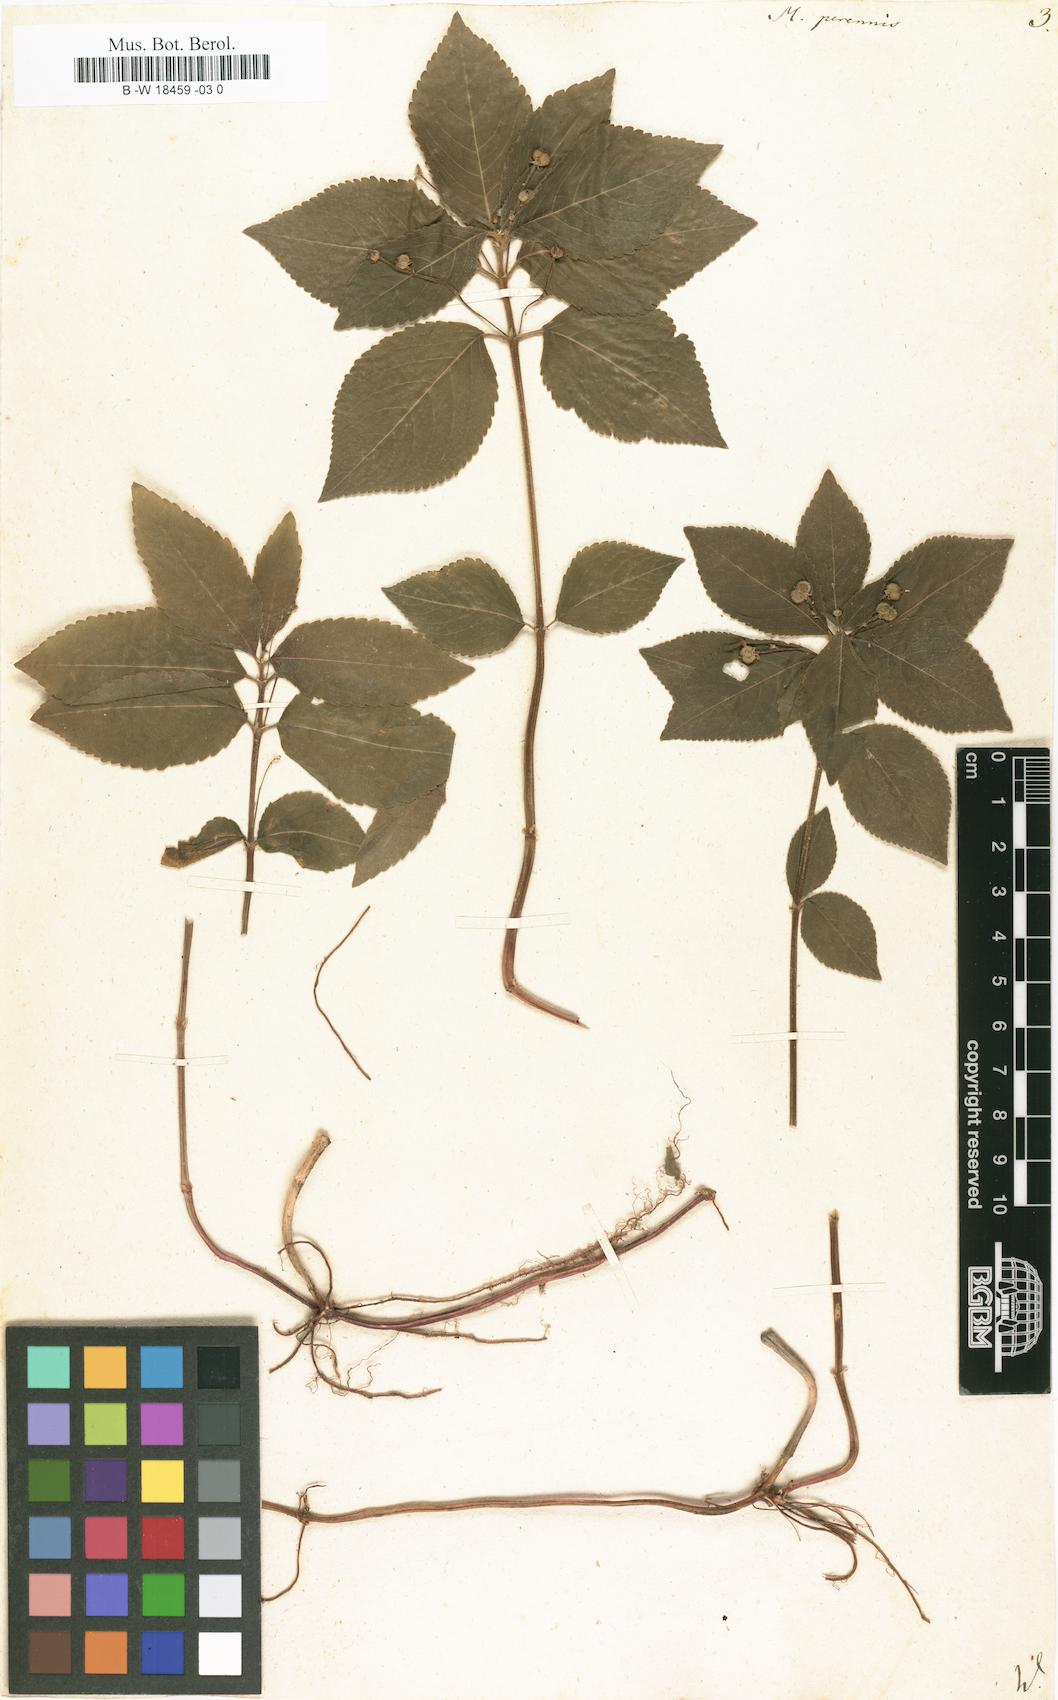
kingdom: Plantae
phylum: Tracheophyta
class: Magnoliopsida
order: Malpighiales
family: Euphorbiaceae
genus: Mercurialis
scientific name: Mercurialis perennis
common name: Dog mercury
